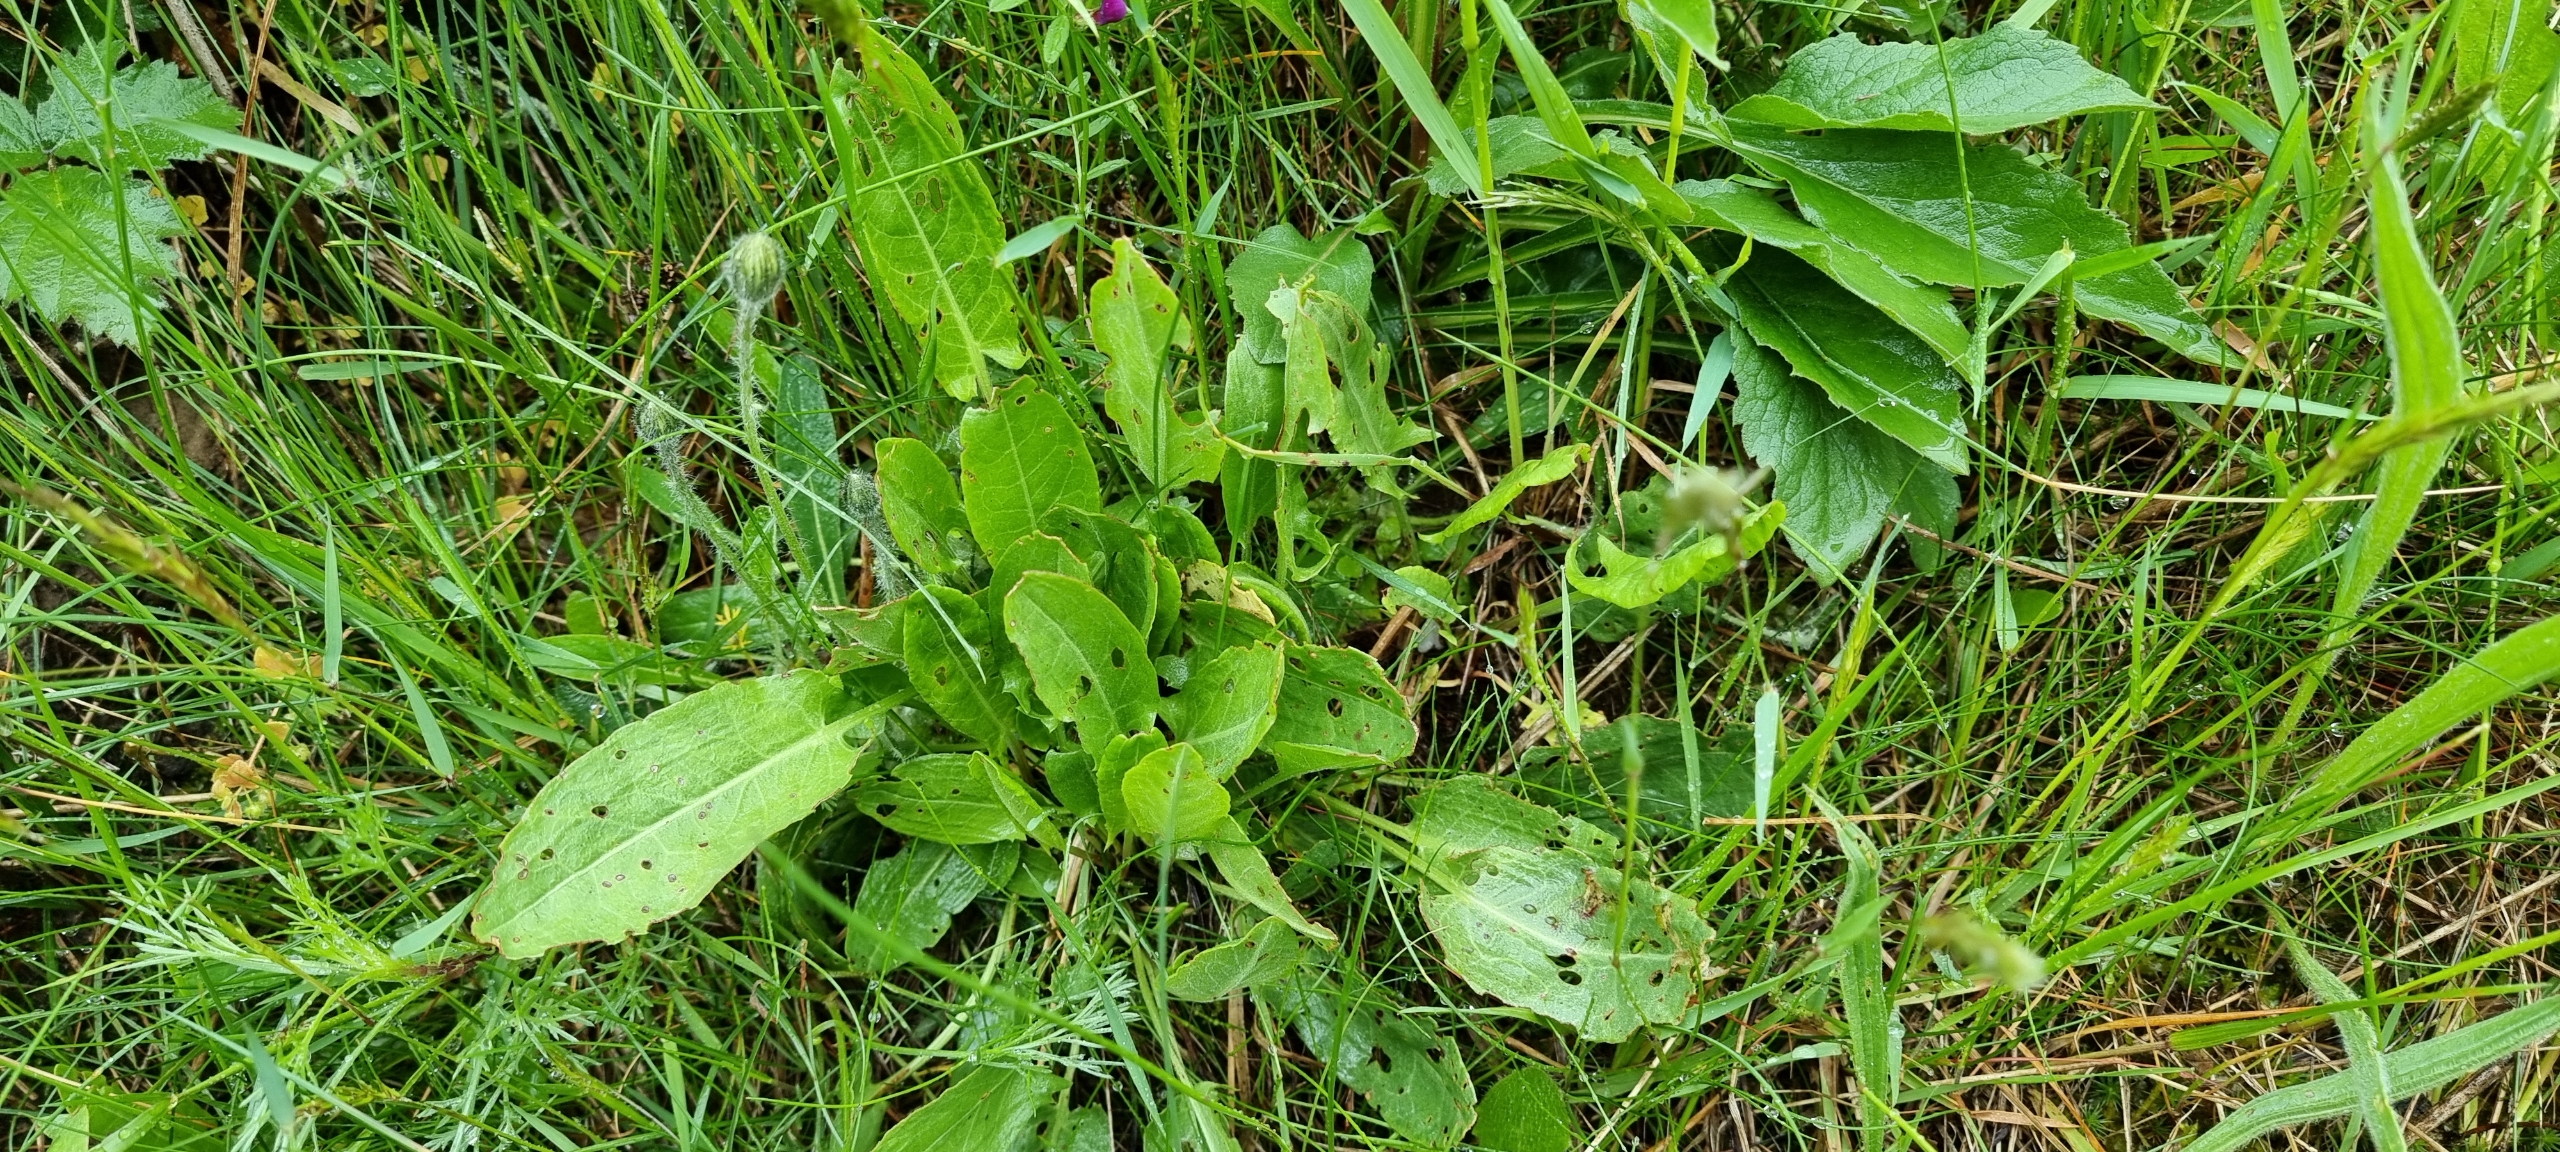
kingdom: Plantae
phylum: Tracheophyta
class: Magnoliopsida
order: Caryophyllales
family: Polygonaceae
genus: Rumex
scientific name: Rumex acetosa
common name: Almindelig syre
